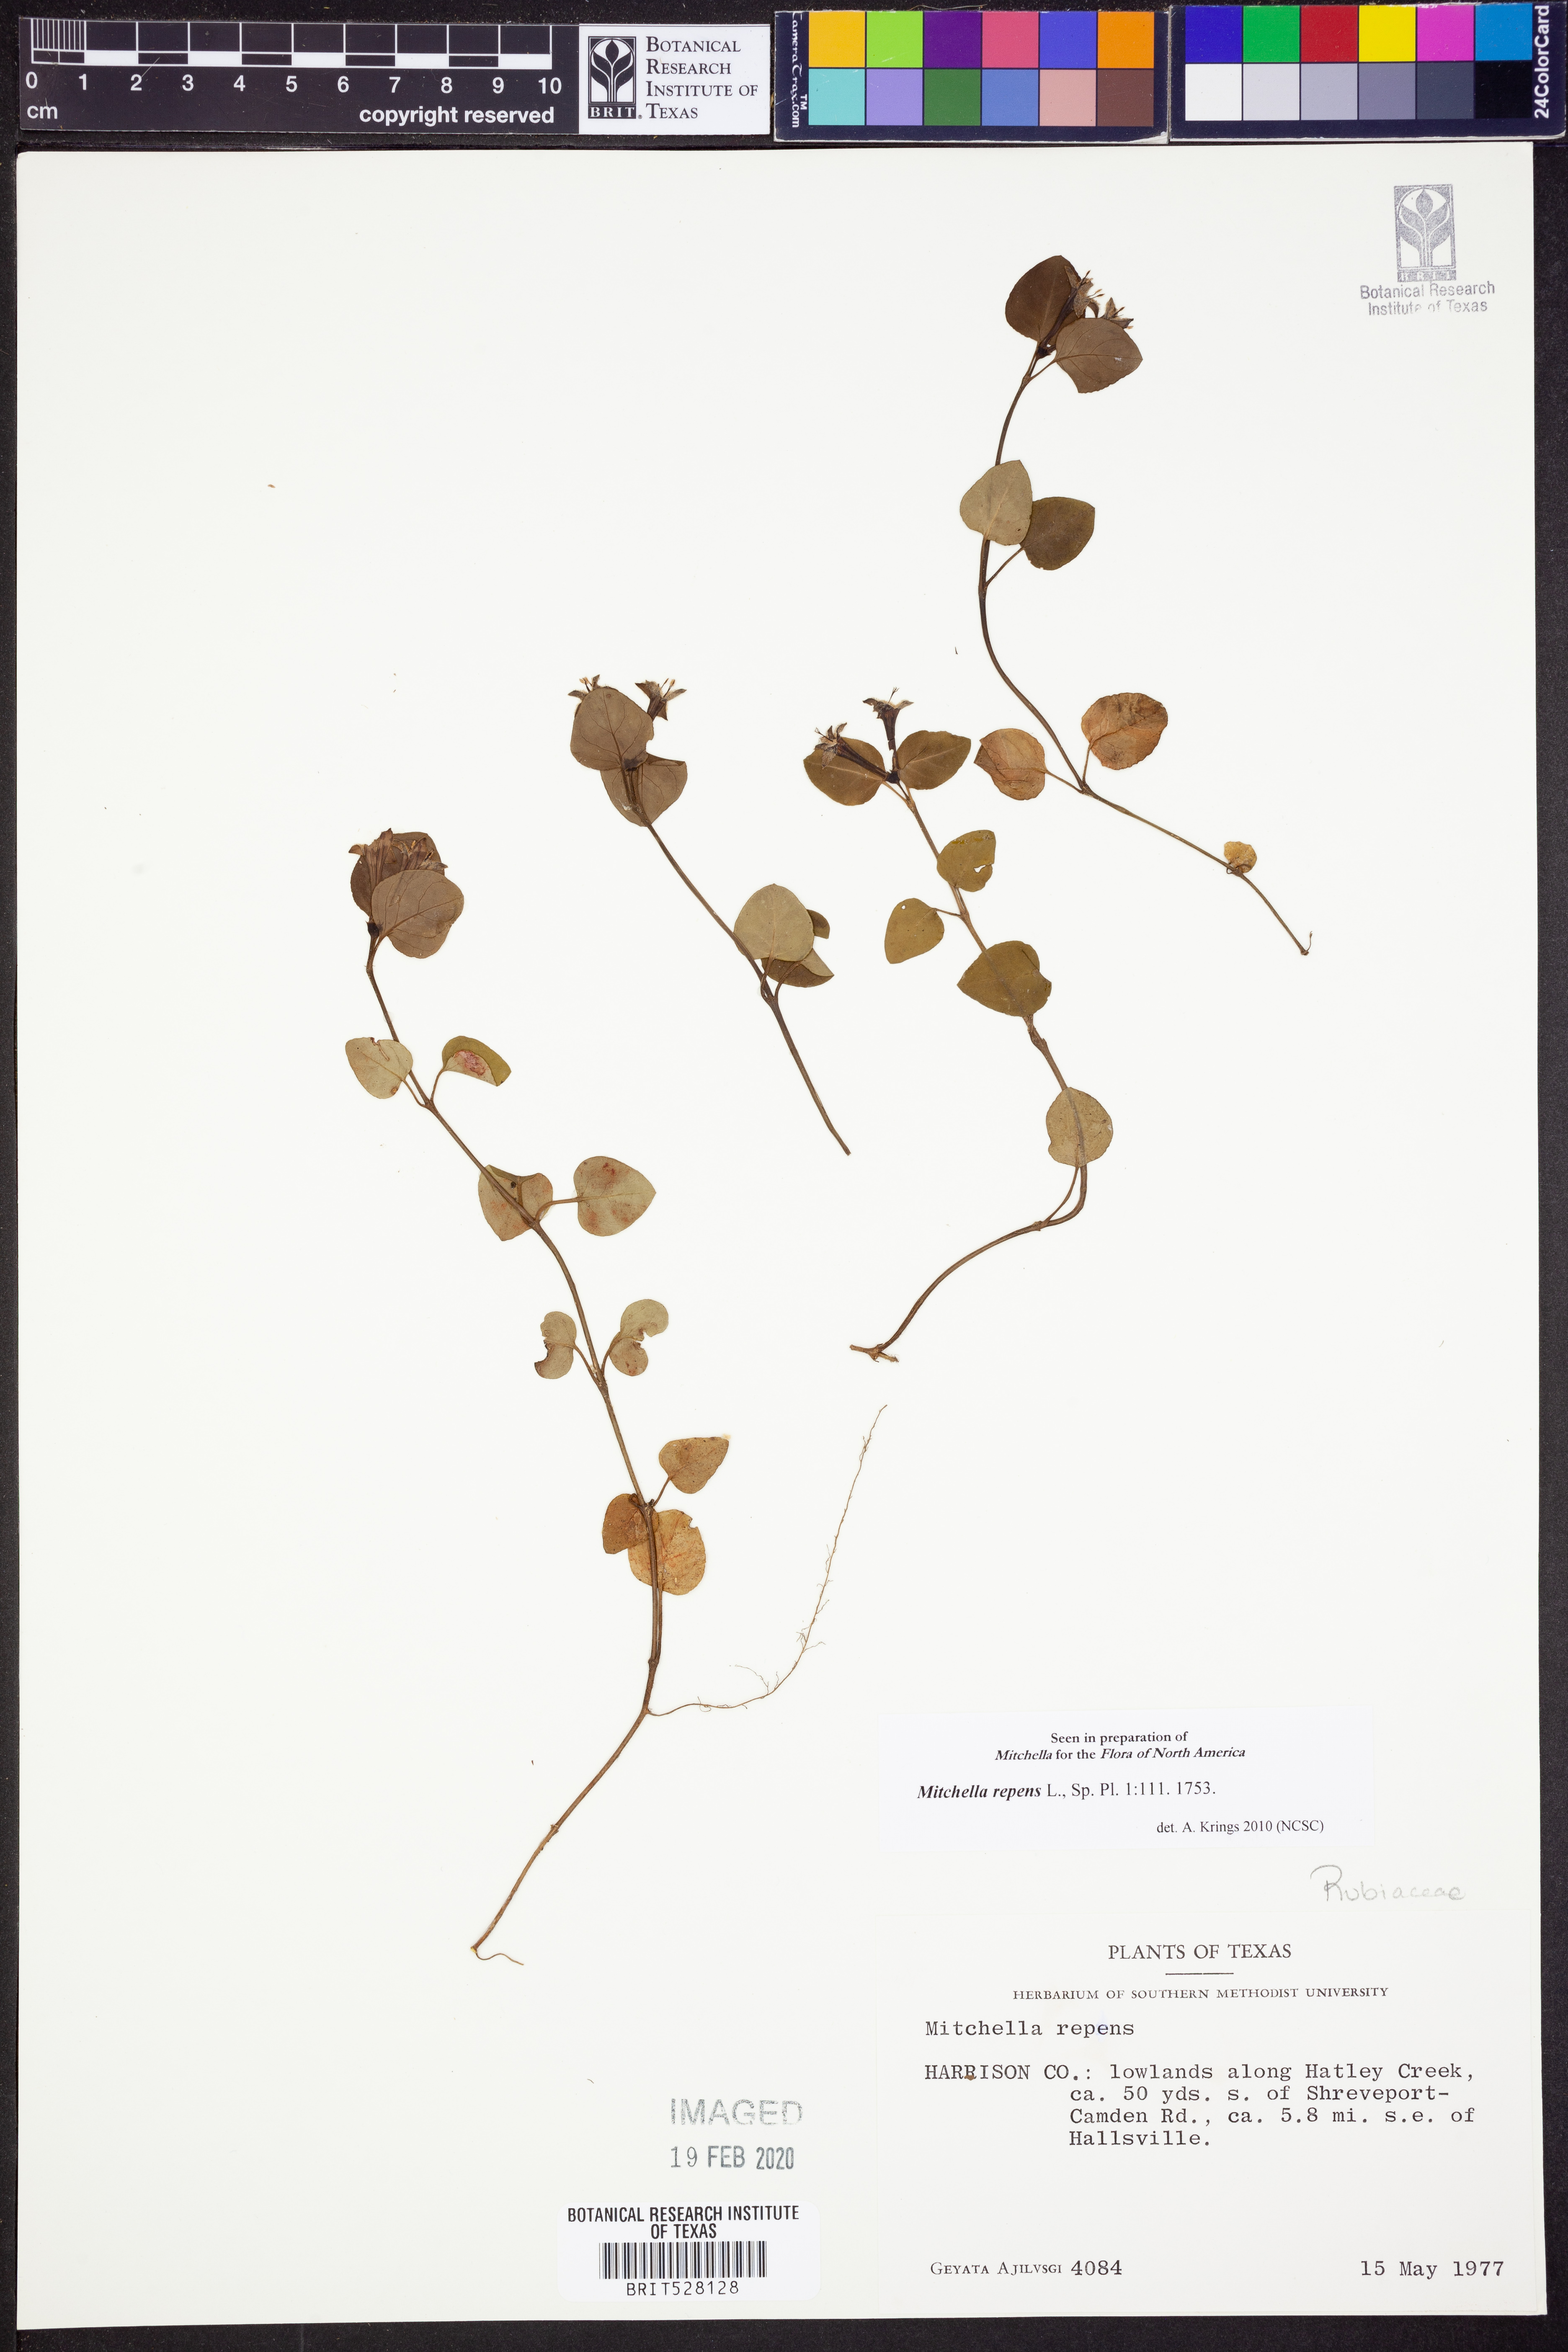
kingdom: Plantae
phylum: Tracheophyta
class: Magnoliopsida
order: Gentianales
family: Rubiaceae
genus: Mitchella
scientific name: Mitchella repens
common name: Partridge-berry
